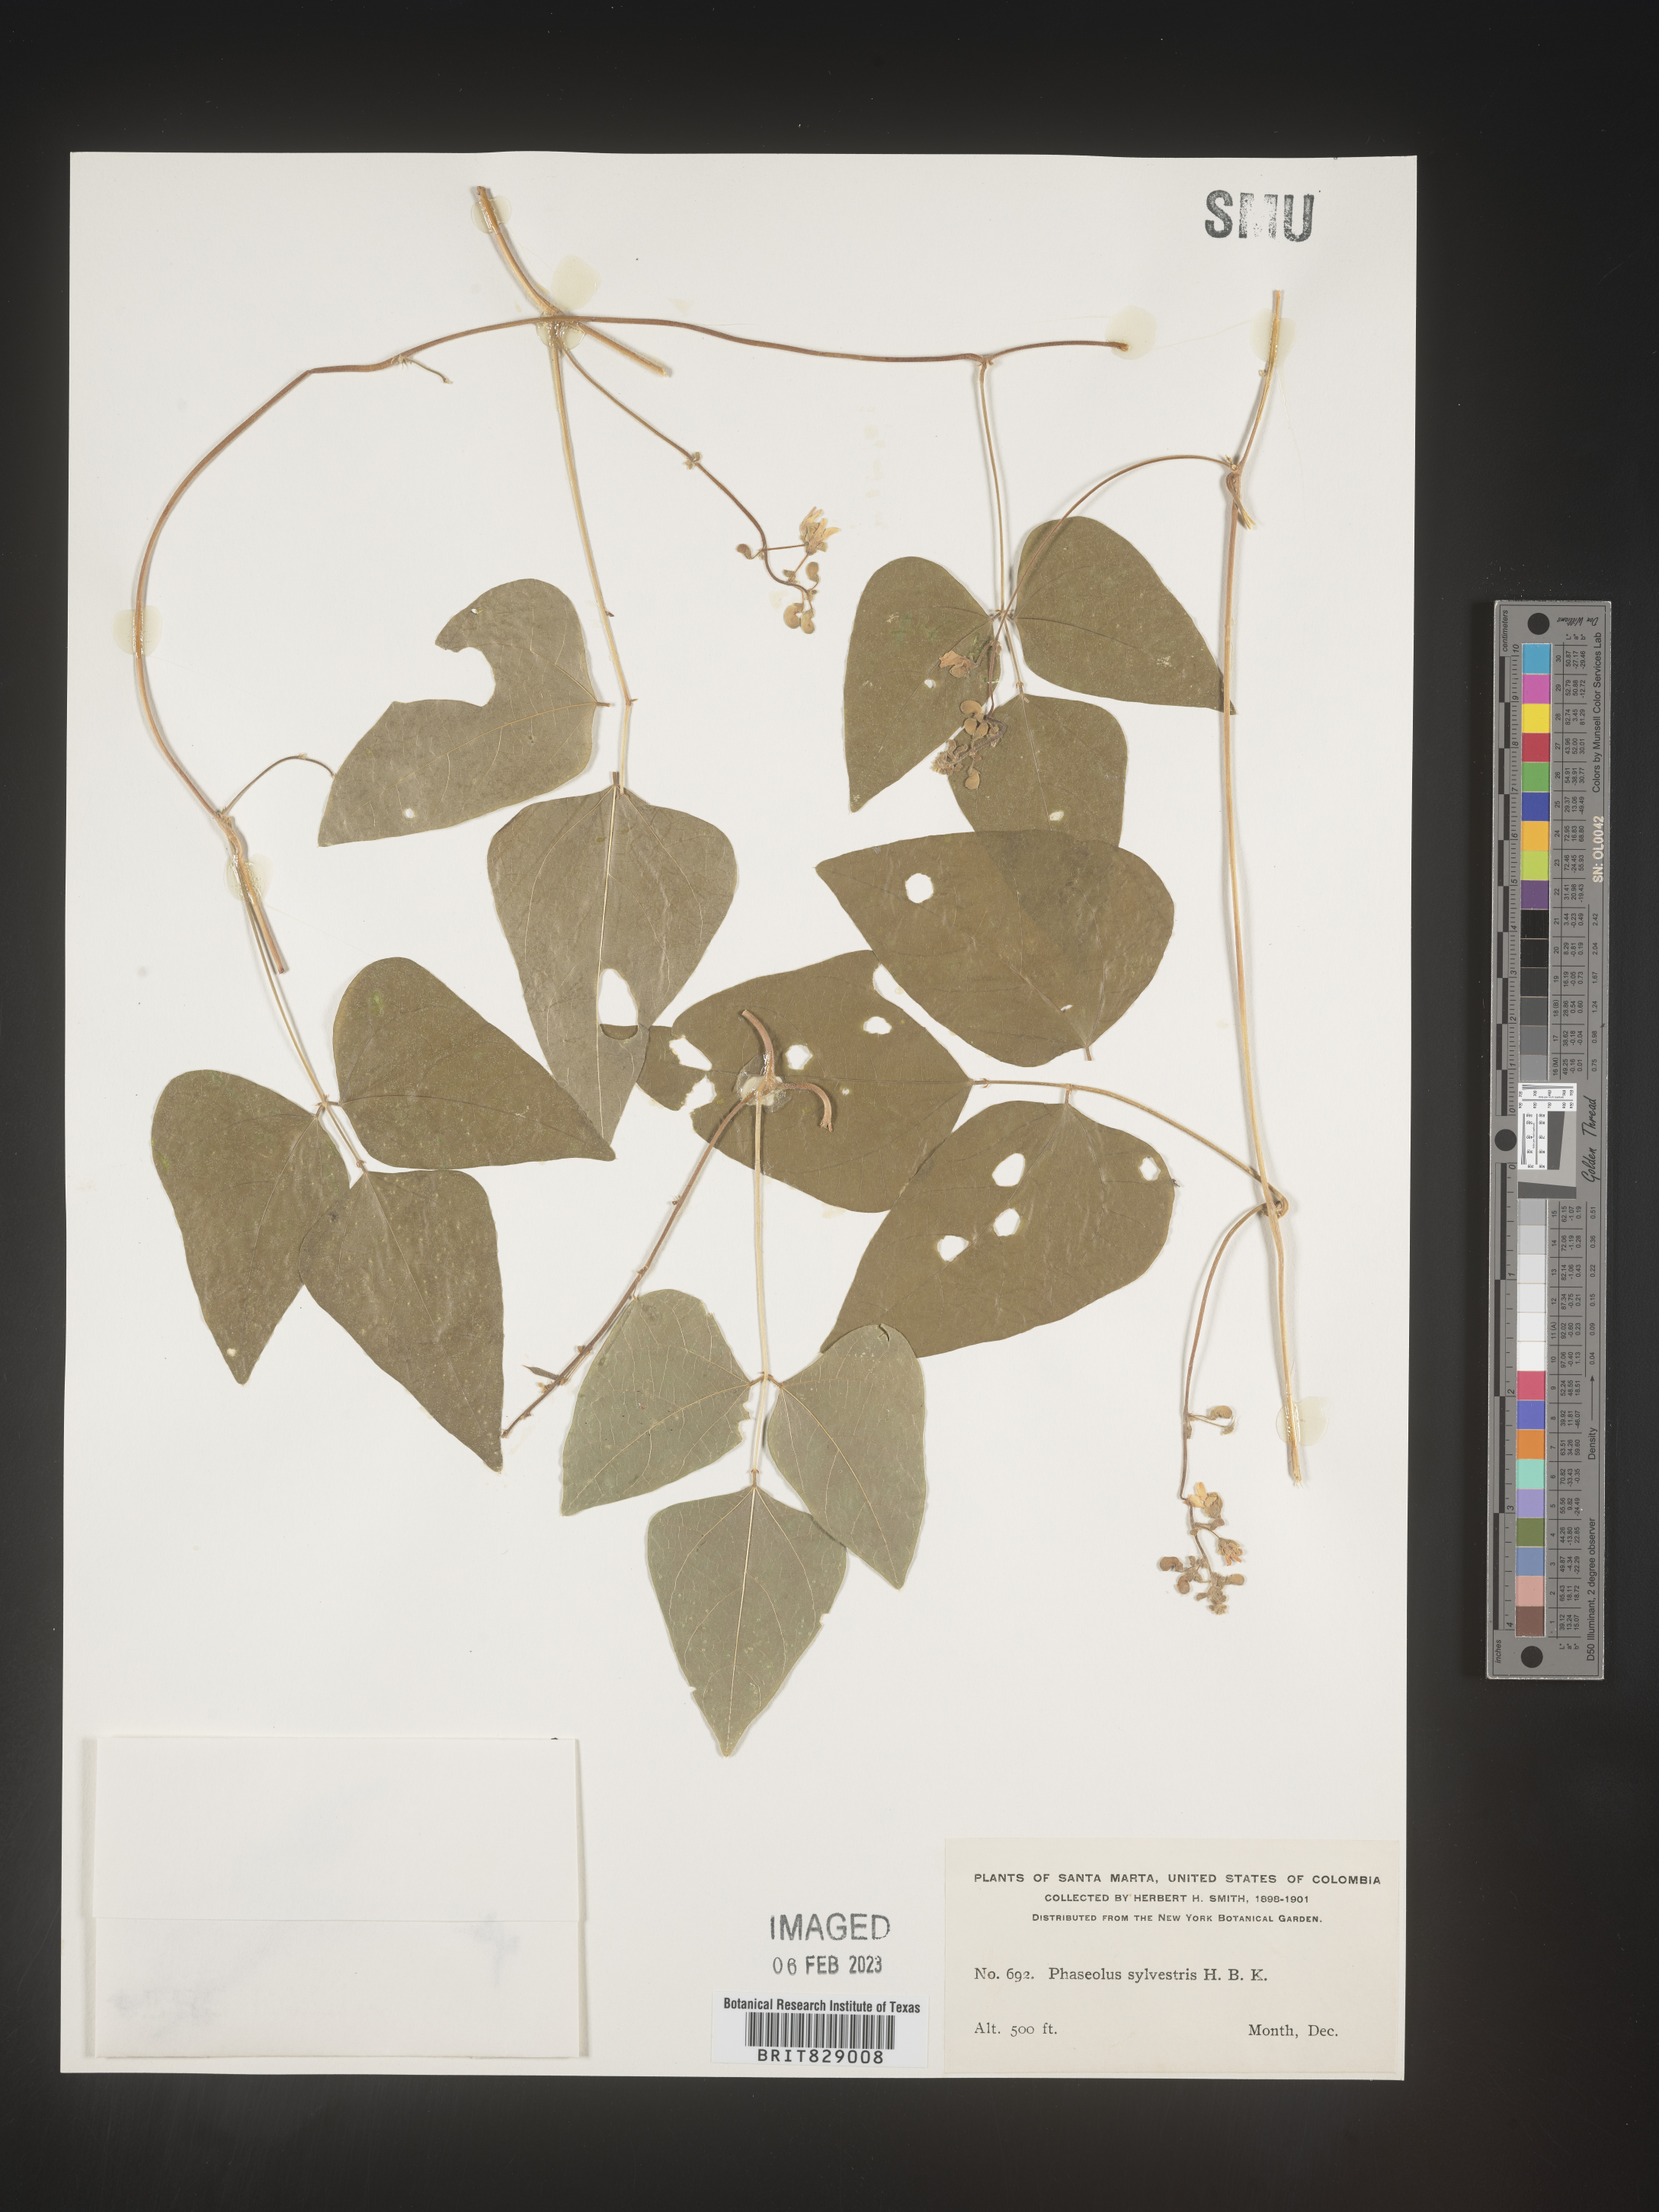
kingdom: Plantae
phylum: Tracheophyta
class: Magnoliopsida
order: Fabales
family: Fabaceae
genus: Phaseolus
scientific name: Phaseolus
